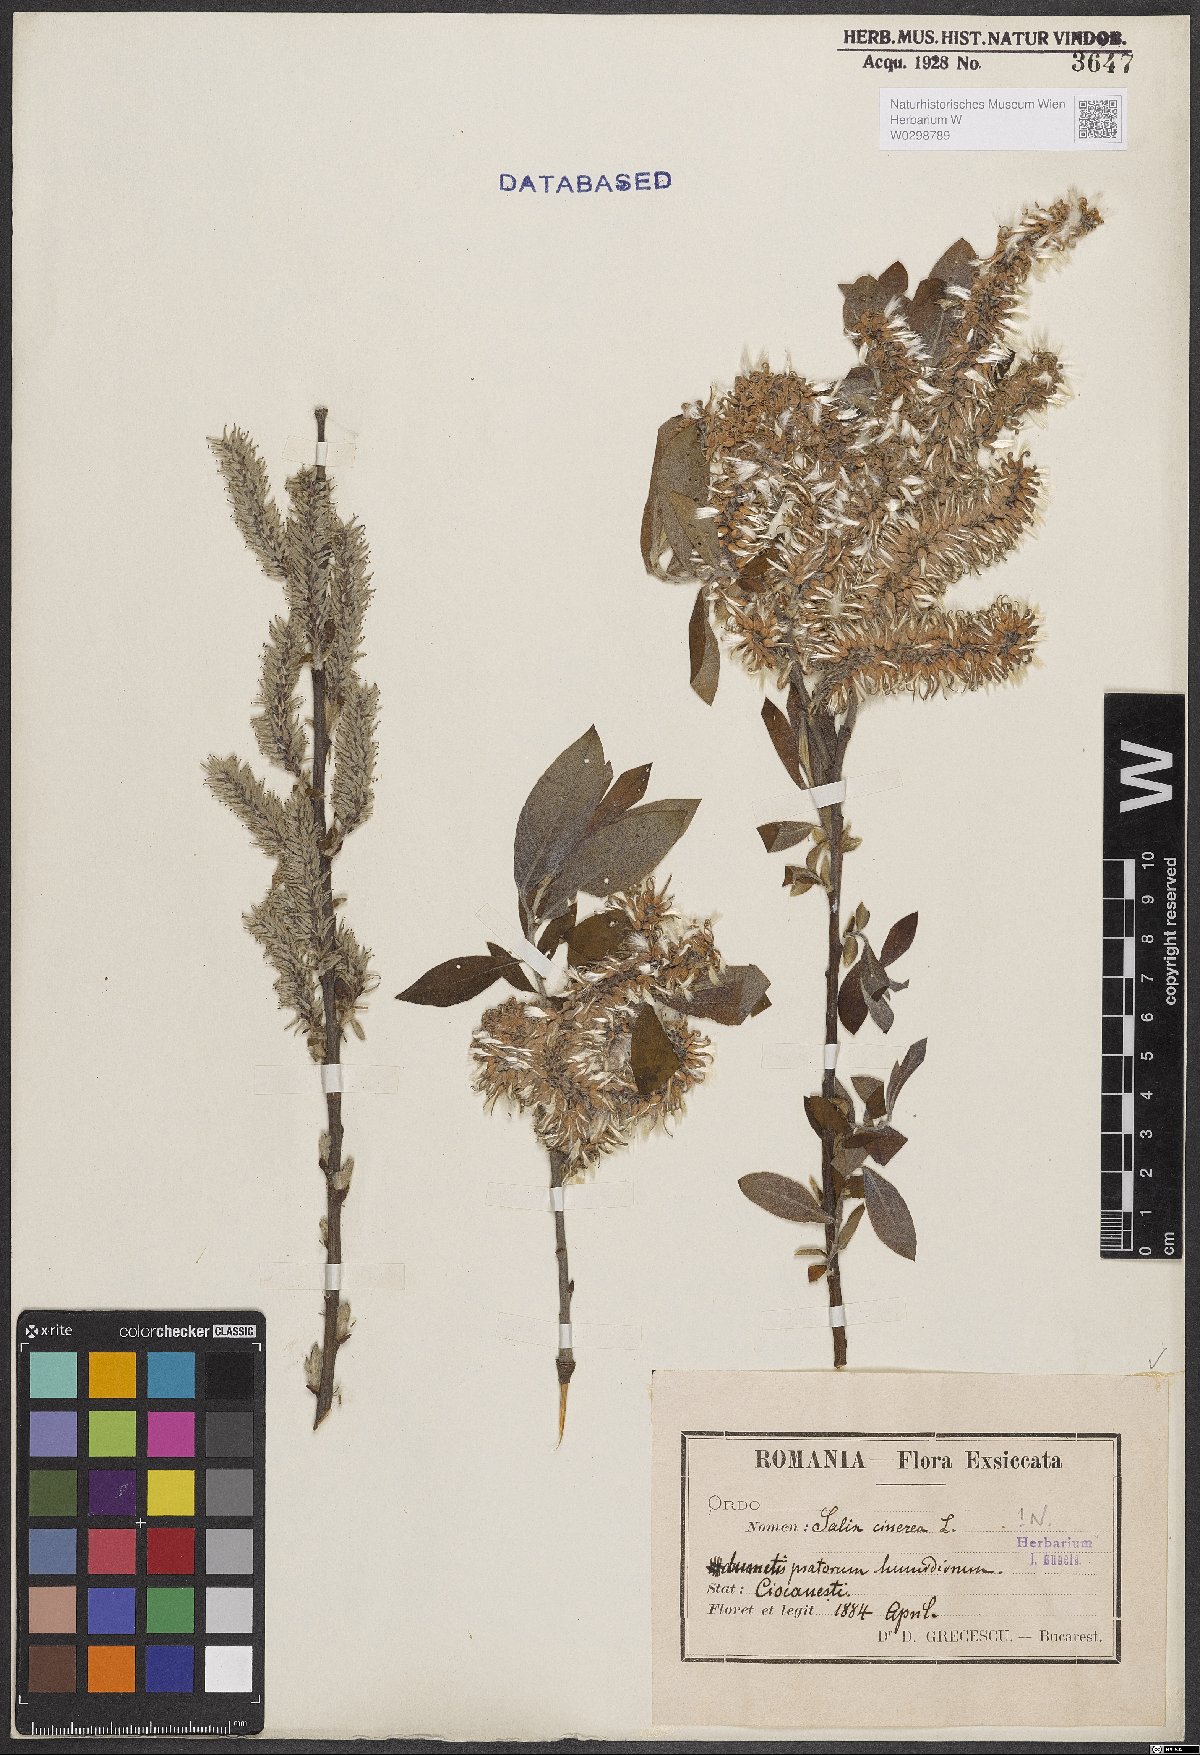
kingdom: Plantae
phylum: Tracheophyta
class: Magnoliopsida
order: Malpighiales
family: Salicaceae
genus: Salix
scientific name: Salix cinerea
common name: Common sallow
